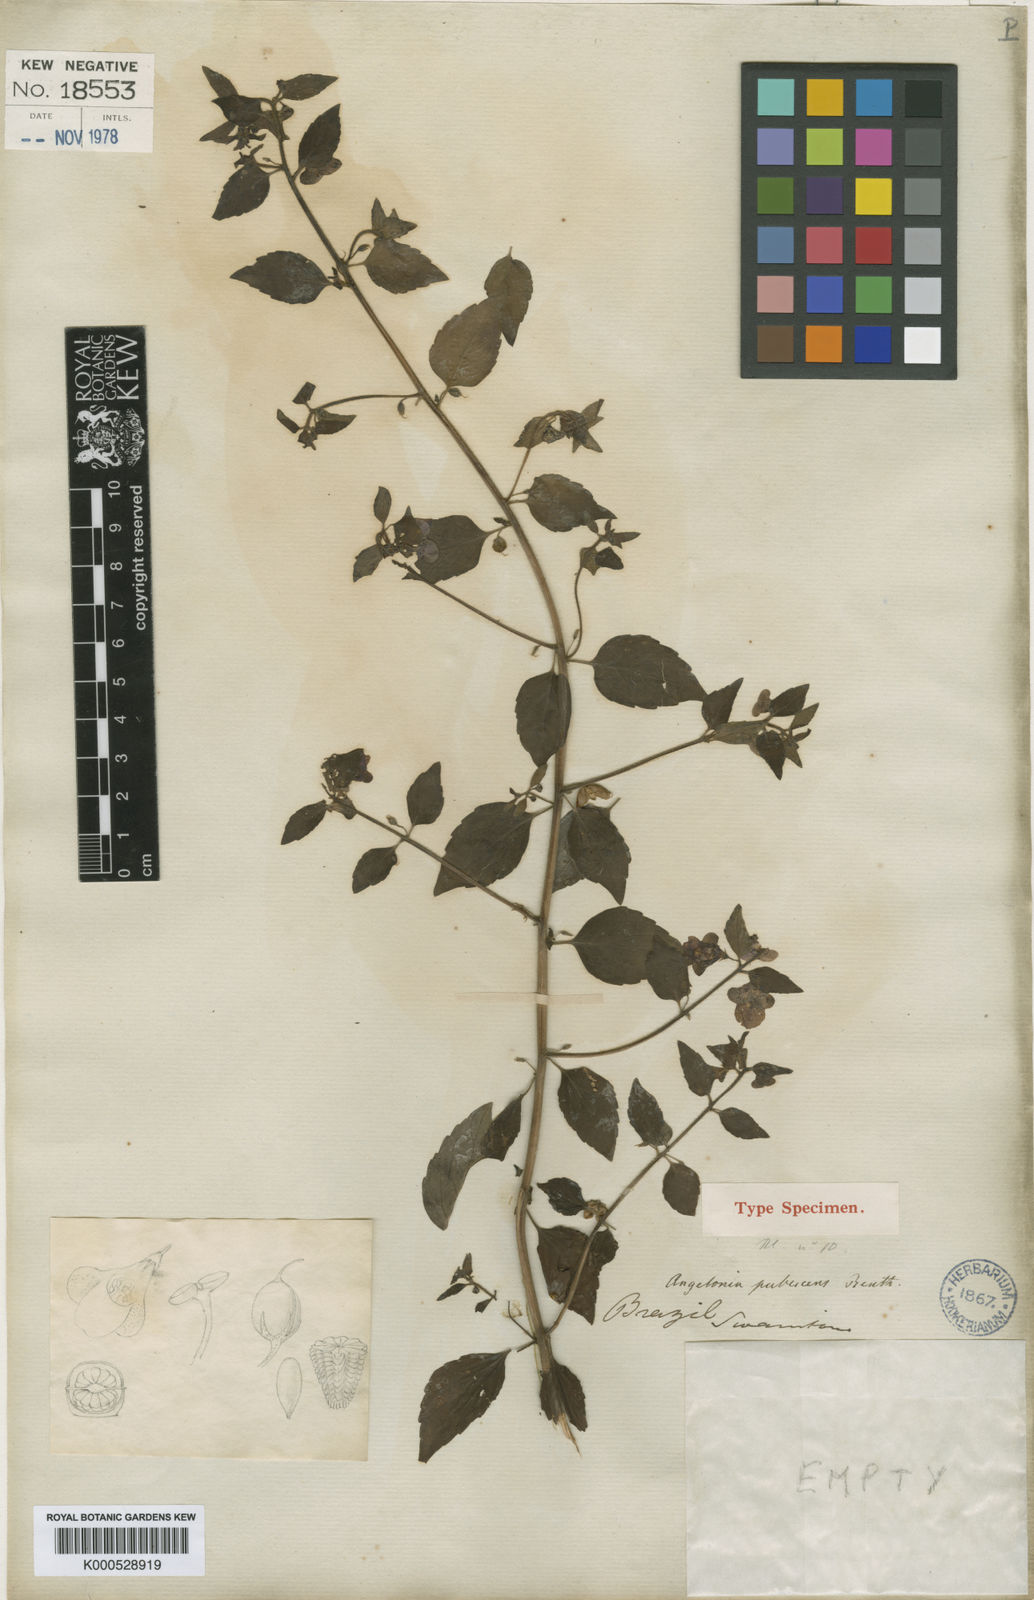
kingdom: Plantae
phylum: Tracheophyta
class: Magnoliopsida
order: Lamiales
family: Plantaginaceae
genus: Angelonia
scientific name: Angelonia pubescens
